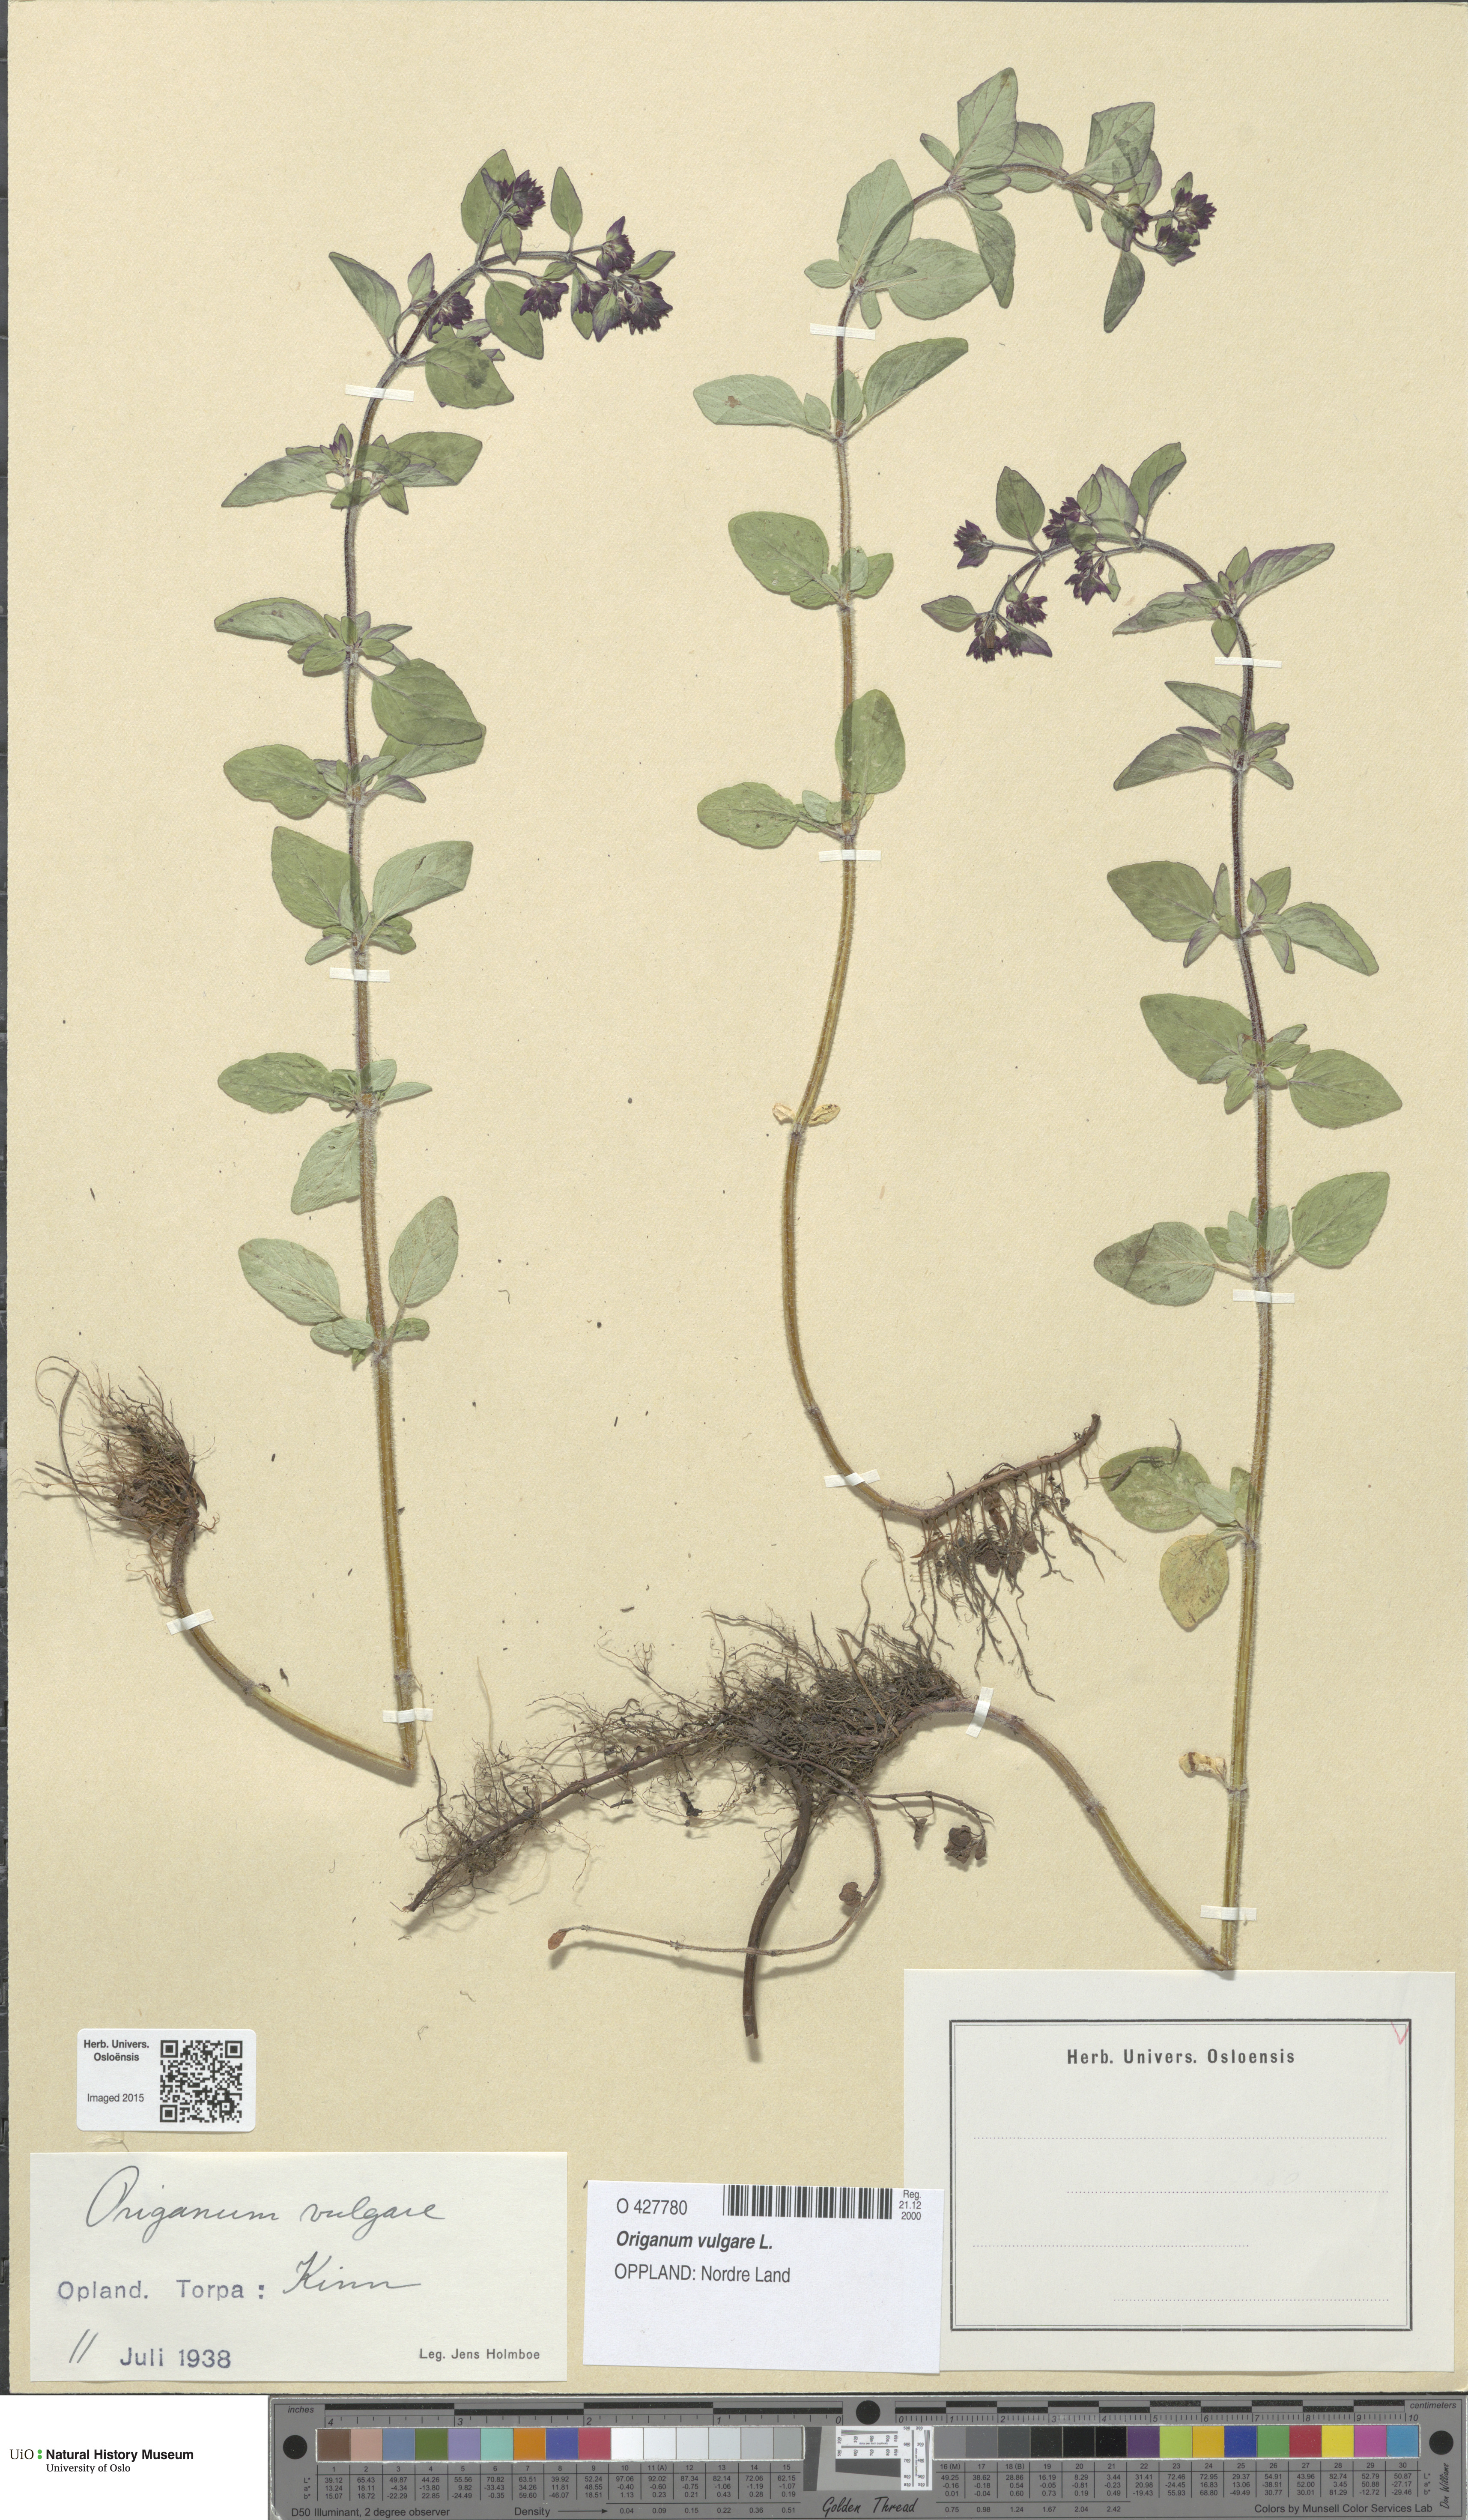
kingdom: Plantae
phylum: Tracheophyta
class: Magnoliopsida
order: Lamiales
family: Lamiaceae
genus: Origanum
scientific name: Origanum vulgare
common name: Wild marjoram
